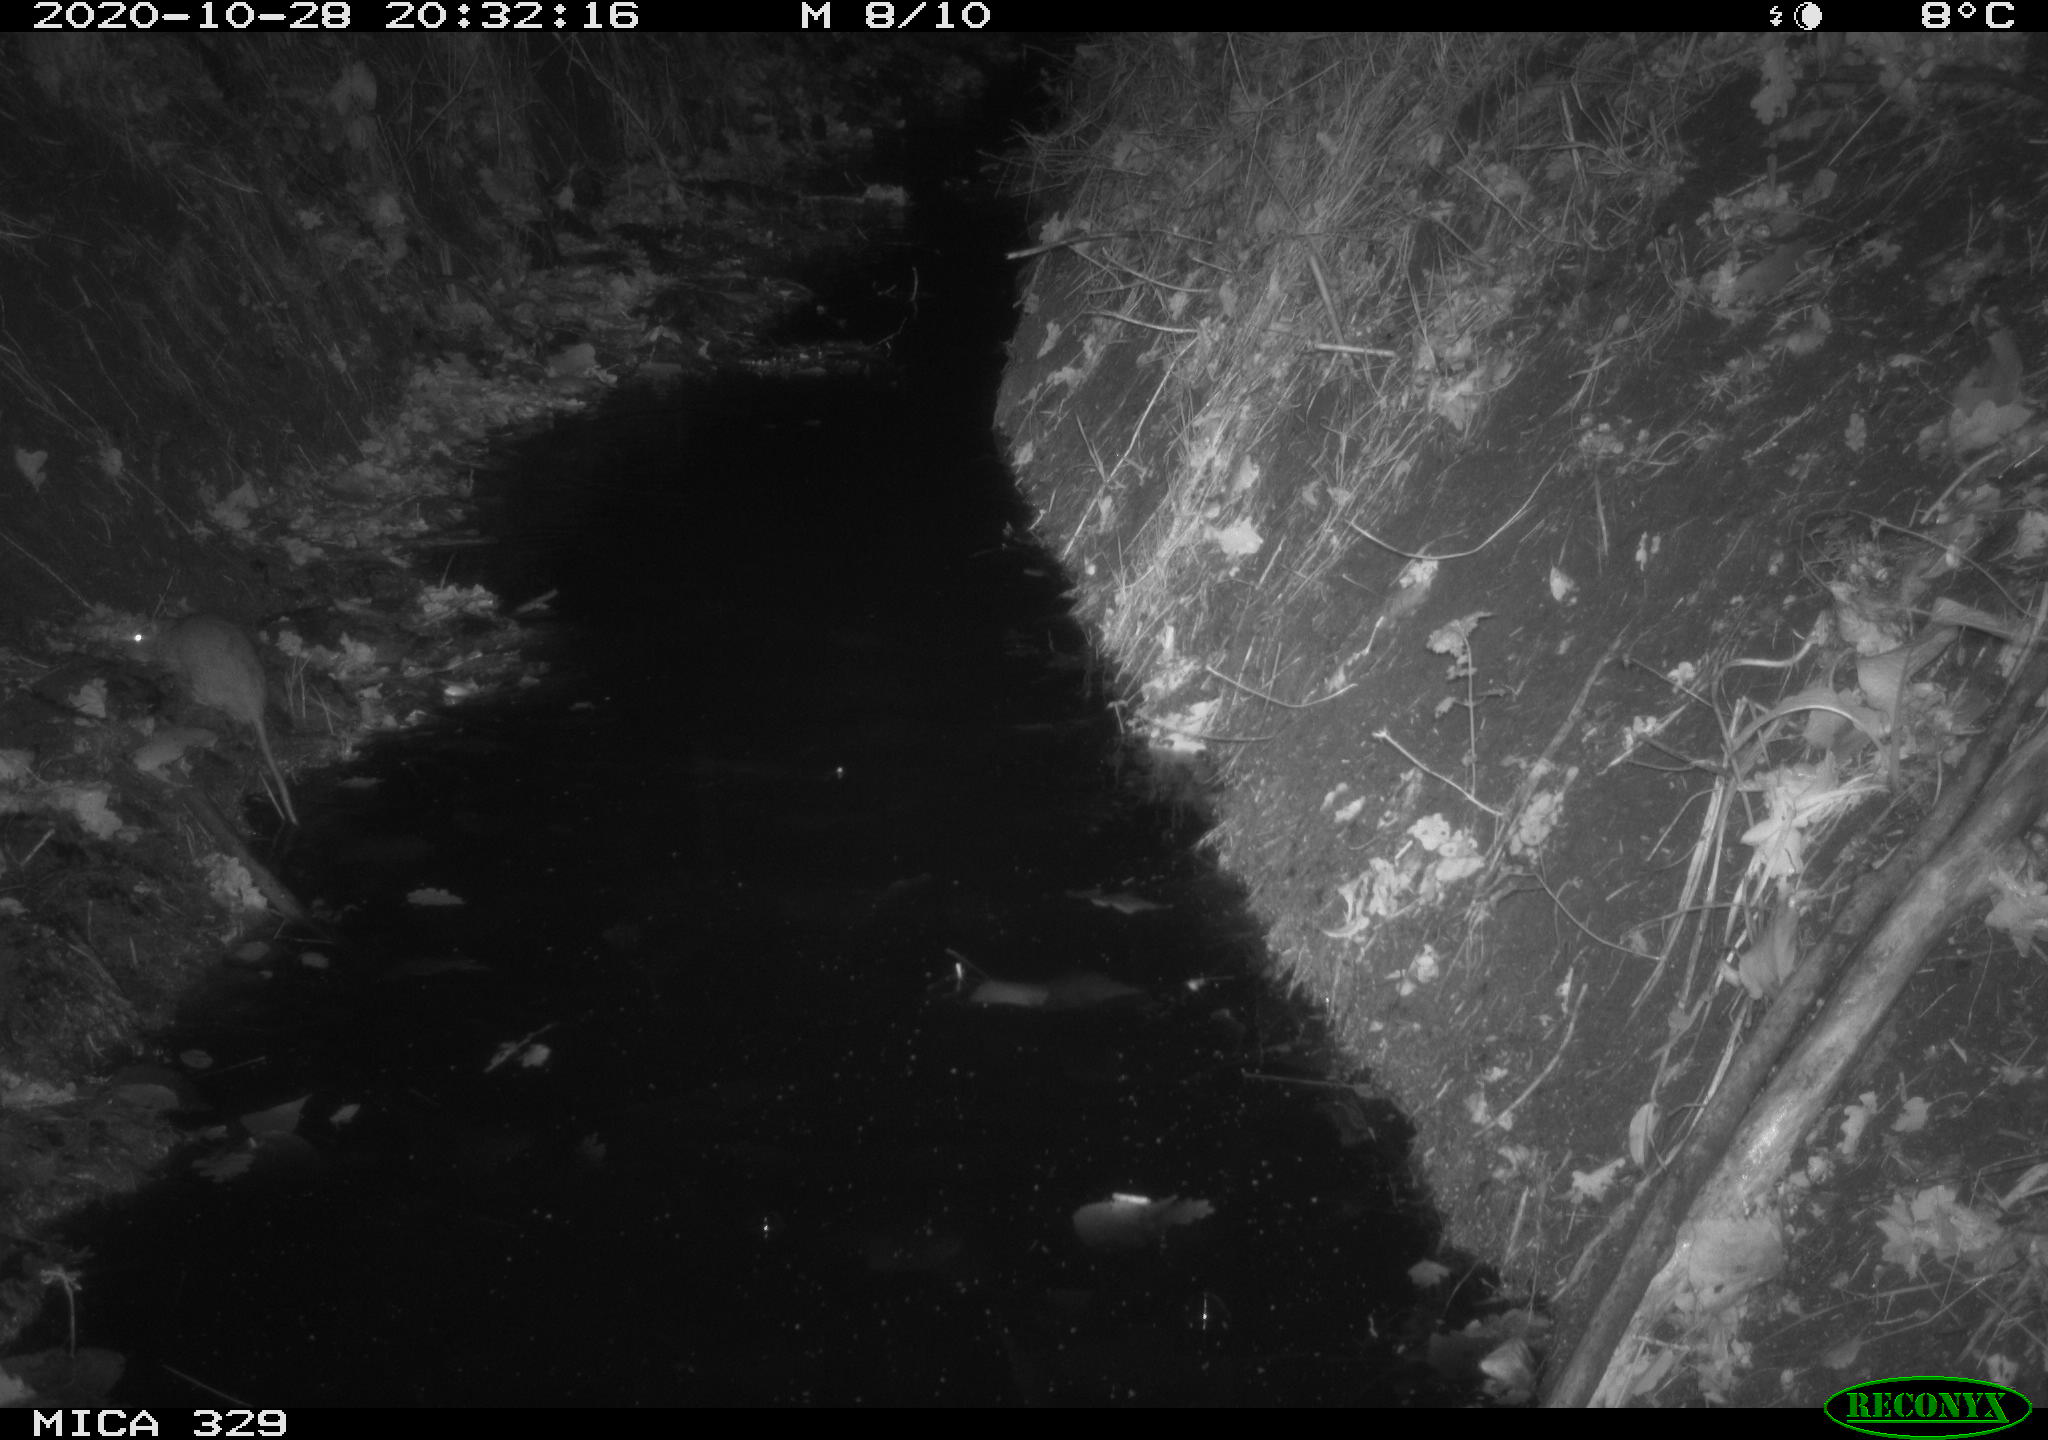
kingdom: Animalia
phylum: Chordata
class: Mammalia
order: Rodentia
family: Muridae
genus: Rattus
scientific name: Rattus norvegicus
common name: Brown rat
